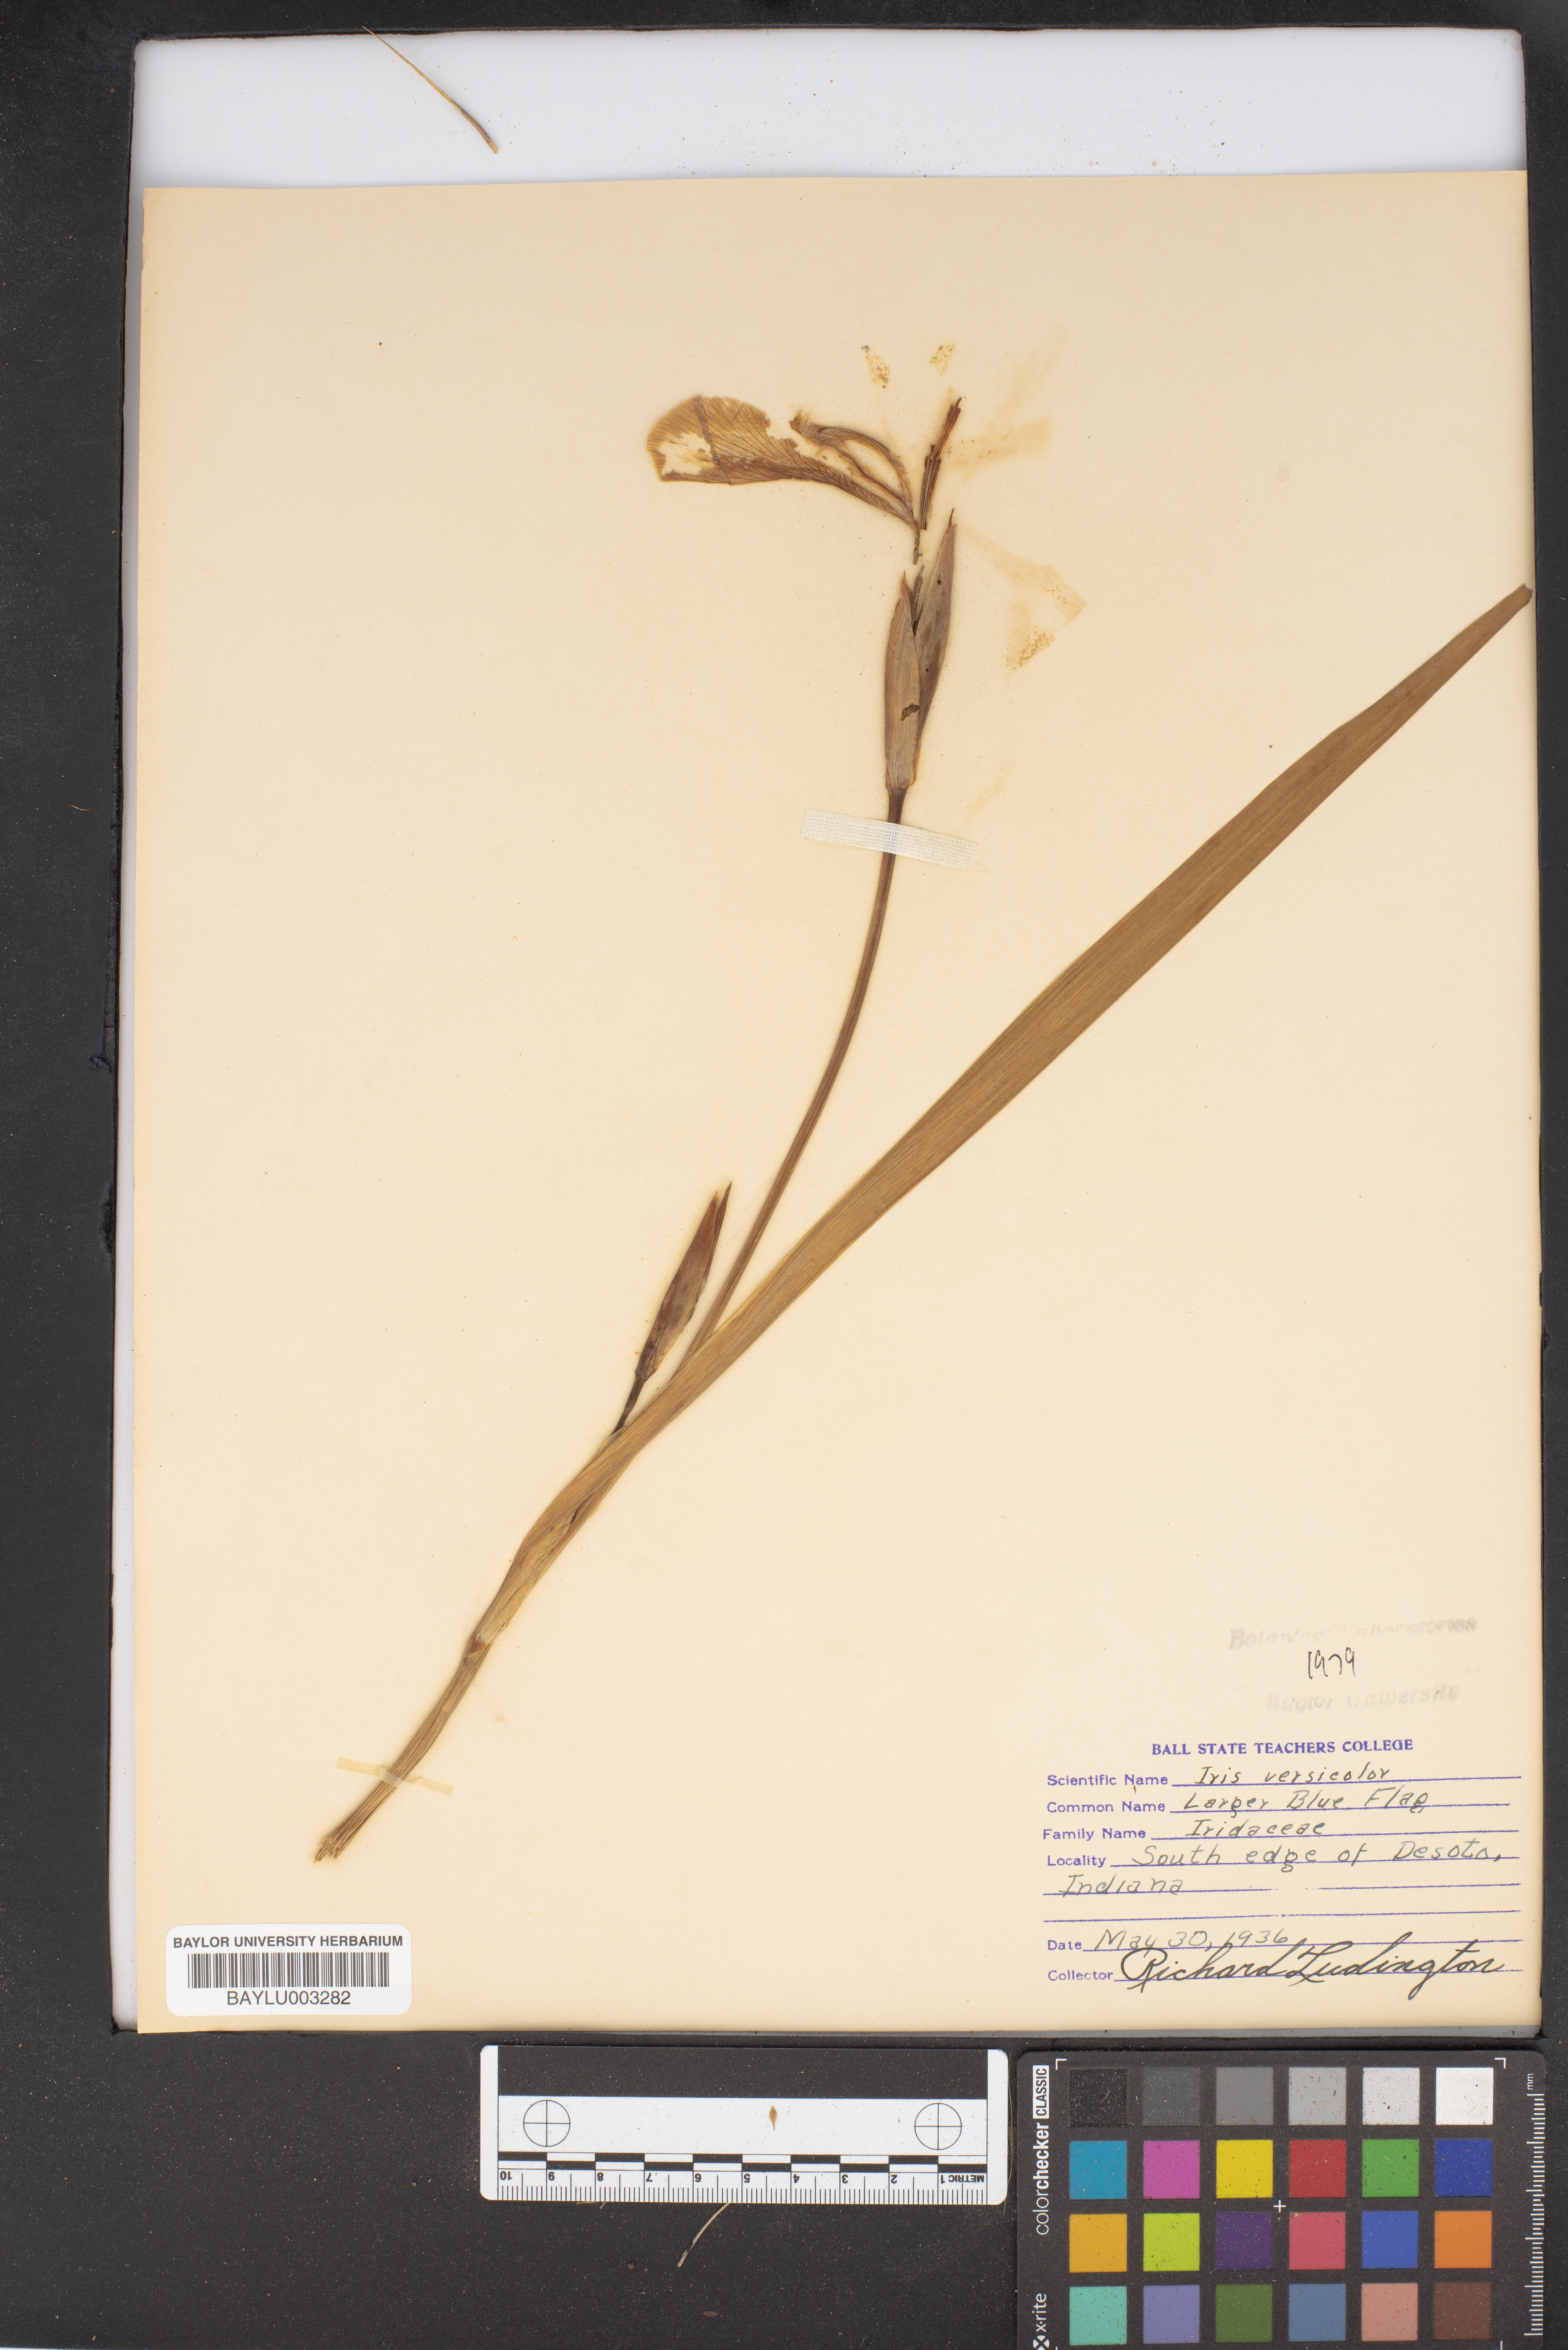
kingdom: Plantae
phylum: Tracheophyta
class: Liliopsida
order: Asparagales
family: Iridaceae
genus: Iris
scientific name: Iris versicolor
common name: Purple iris
